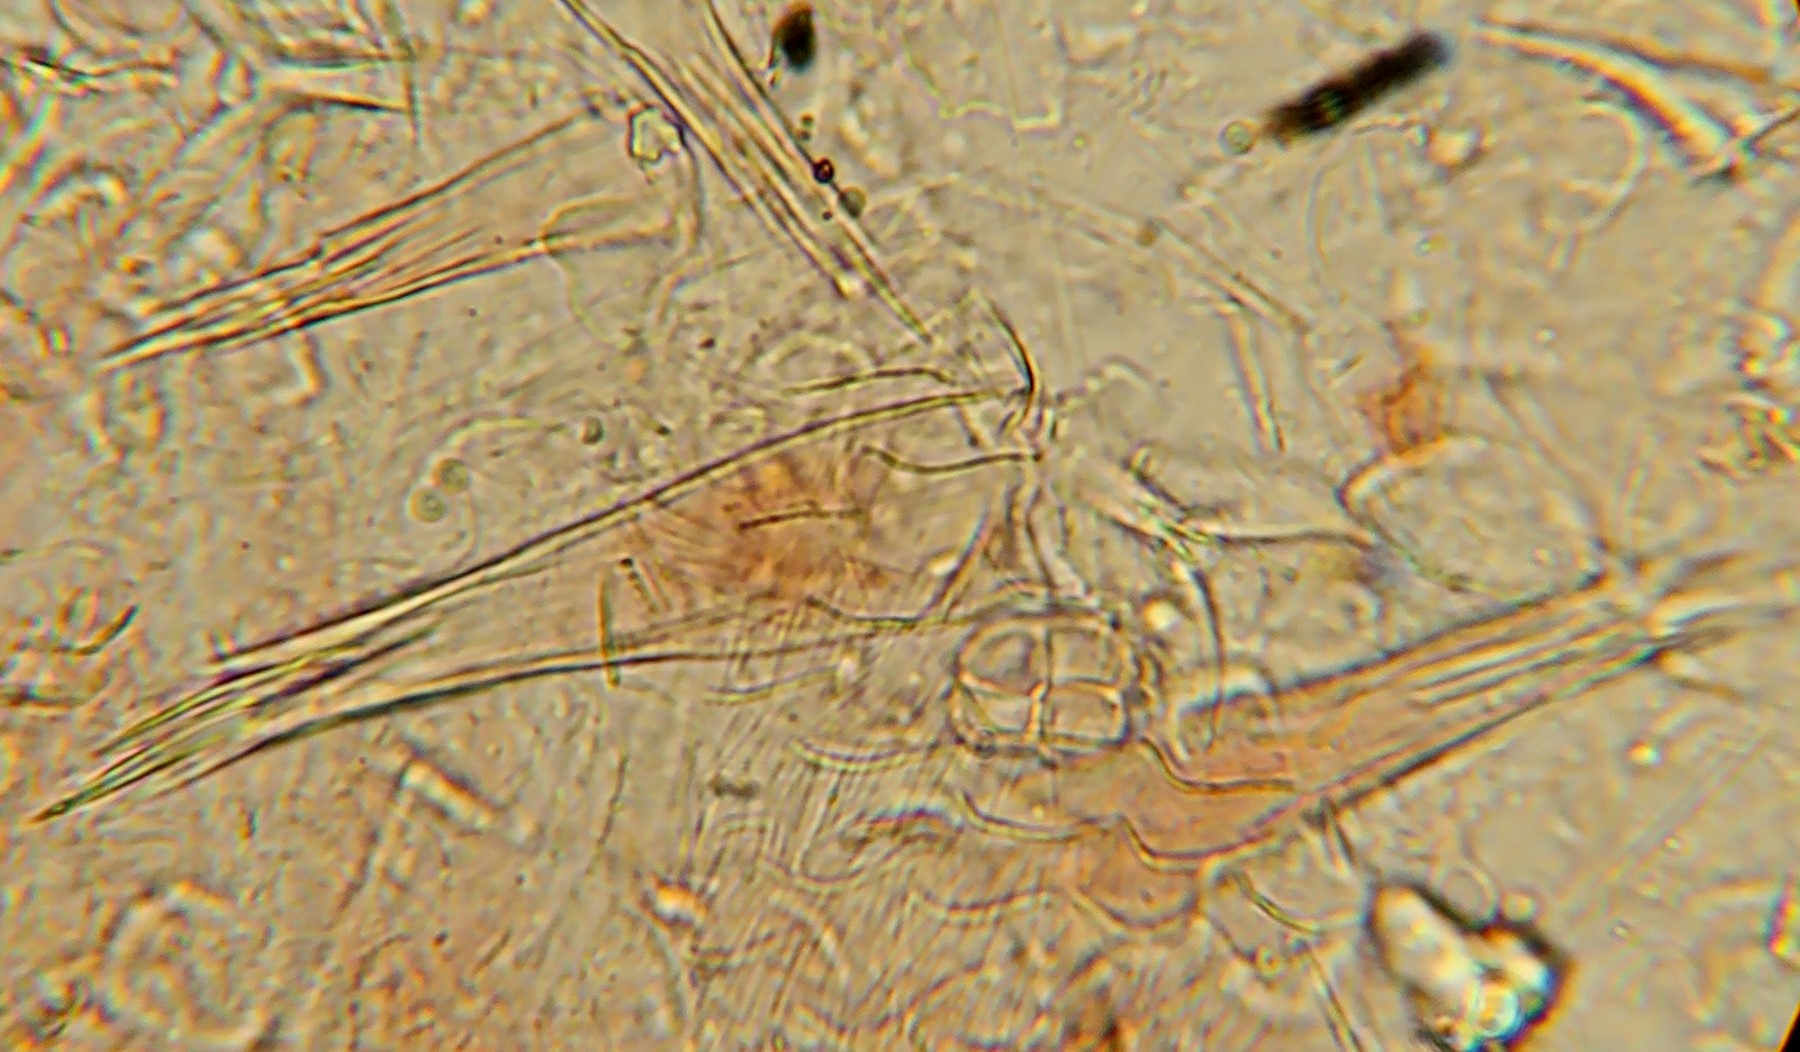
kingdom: Fungi
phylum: Basidiomycota
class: Agaricomycetes
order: Trechisporales
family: Sistotremataceae
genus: Trechispora
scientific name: Trechispora stevensonii
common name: støvende vathinde
